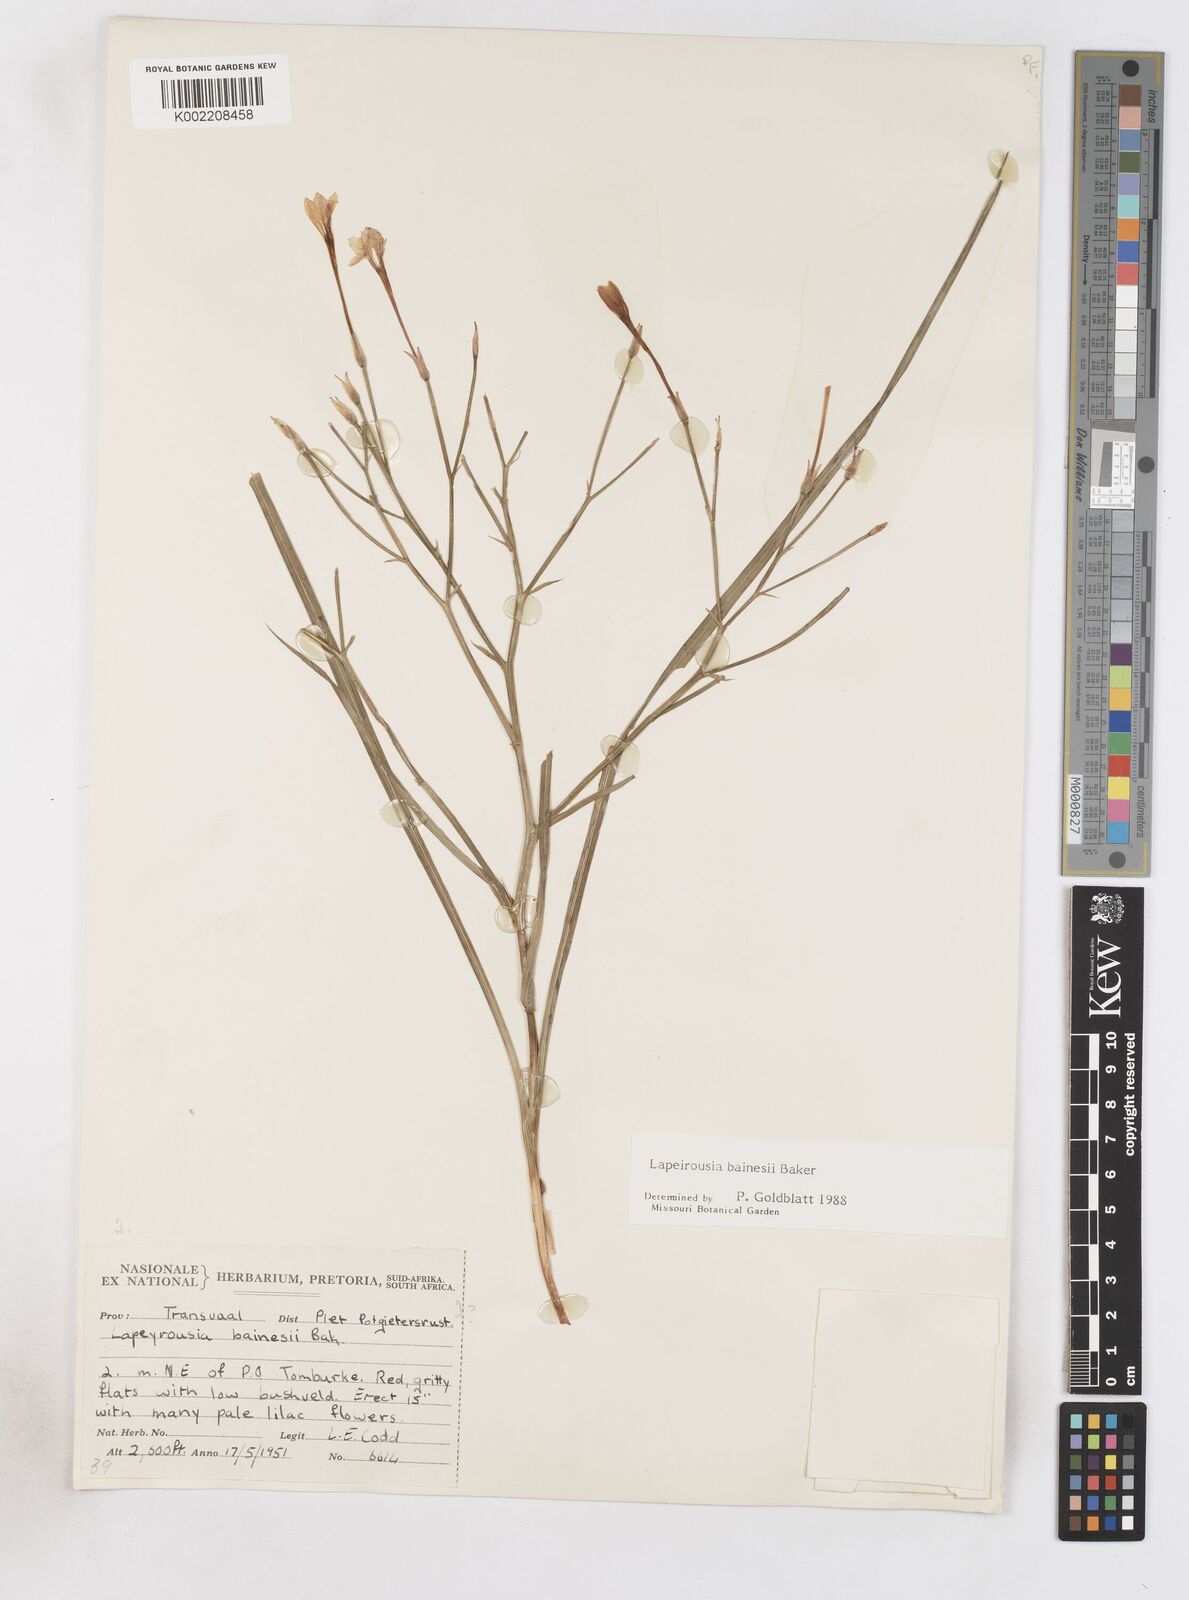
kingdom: Plantae
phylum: Tracheophyta
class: Liliopsida
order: Asparagales
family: Iridaceae
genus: Afrosolen
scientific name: Afrosolen erythranthus
